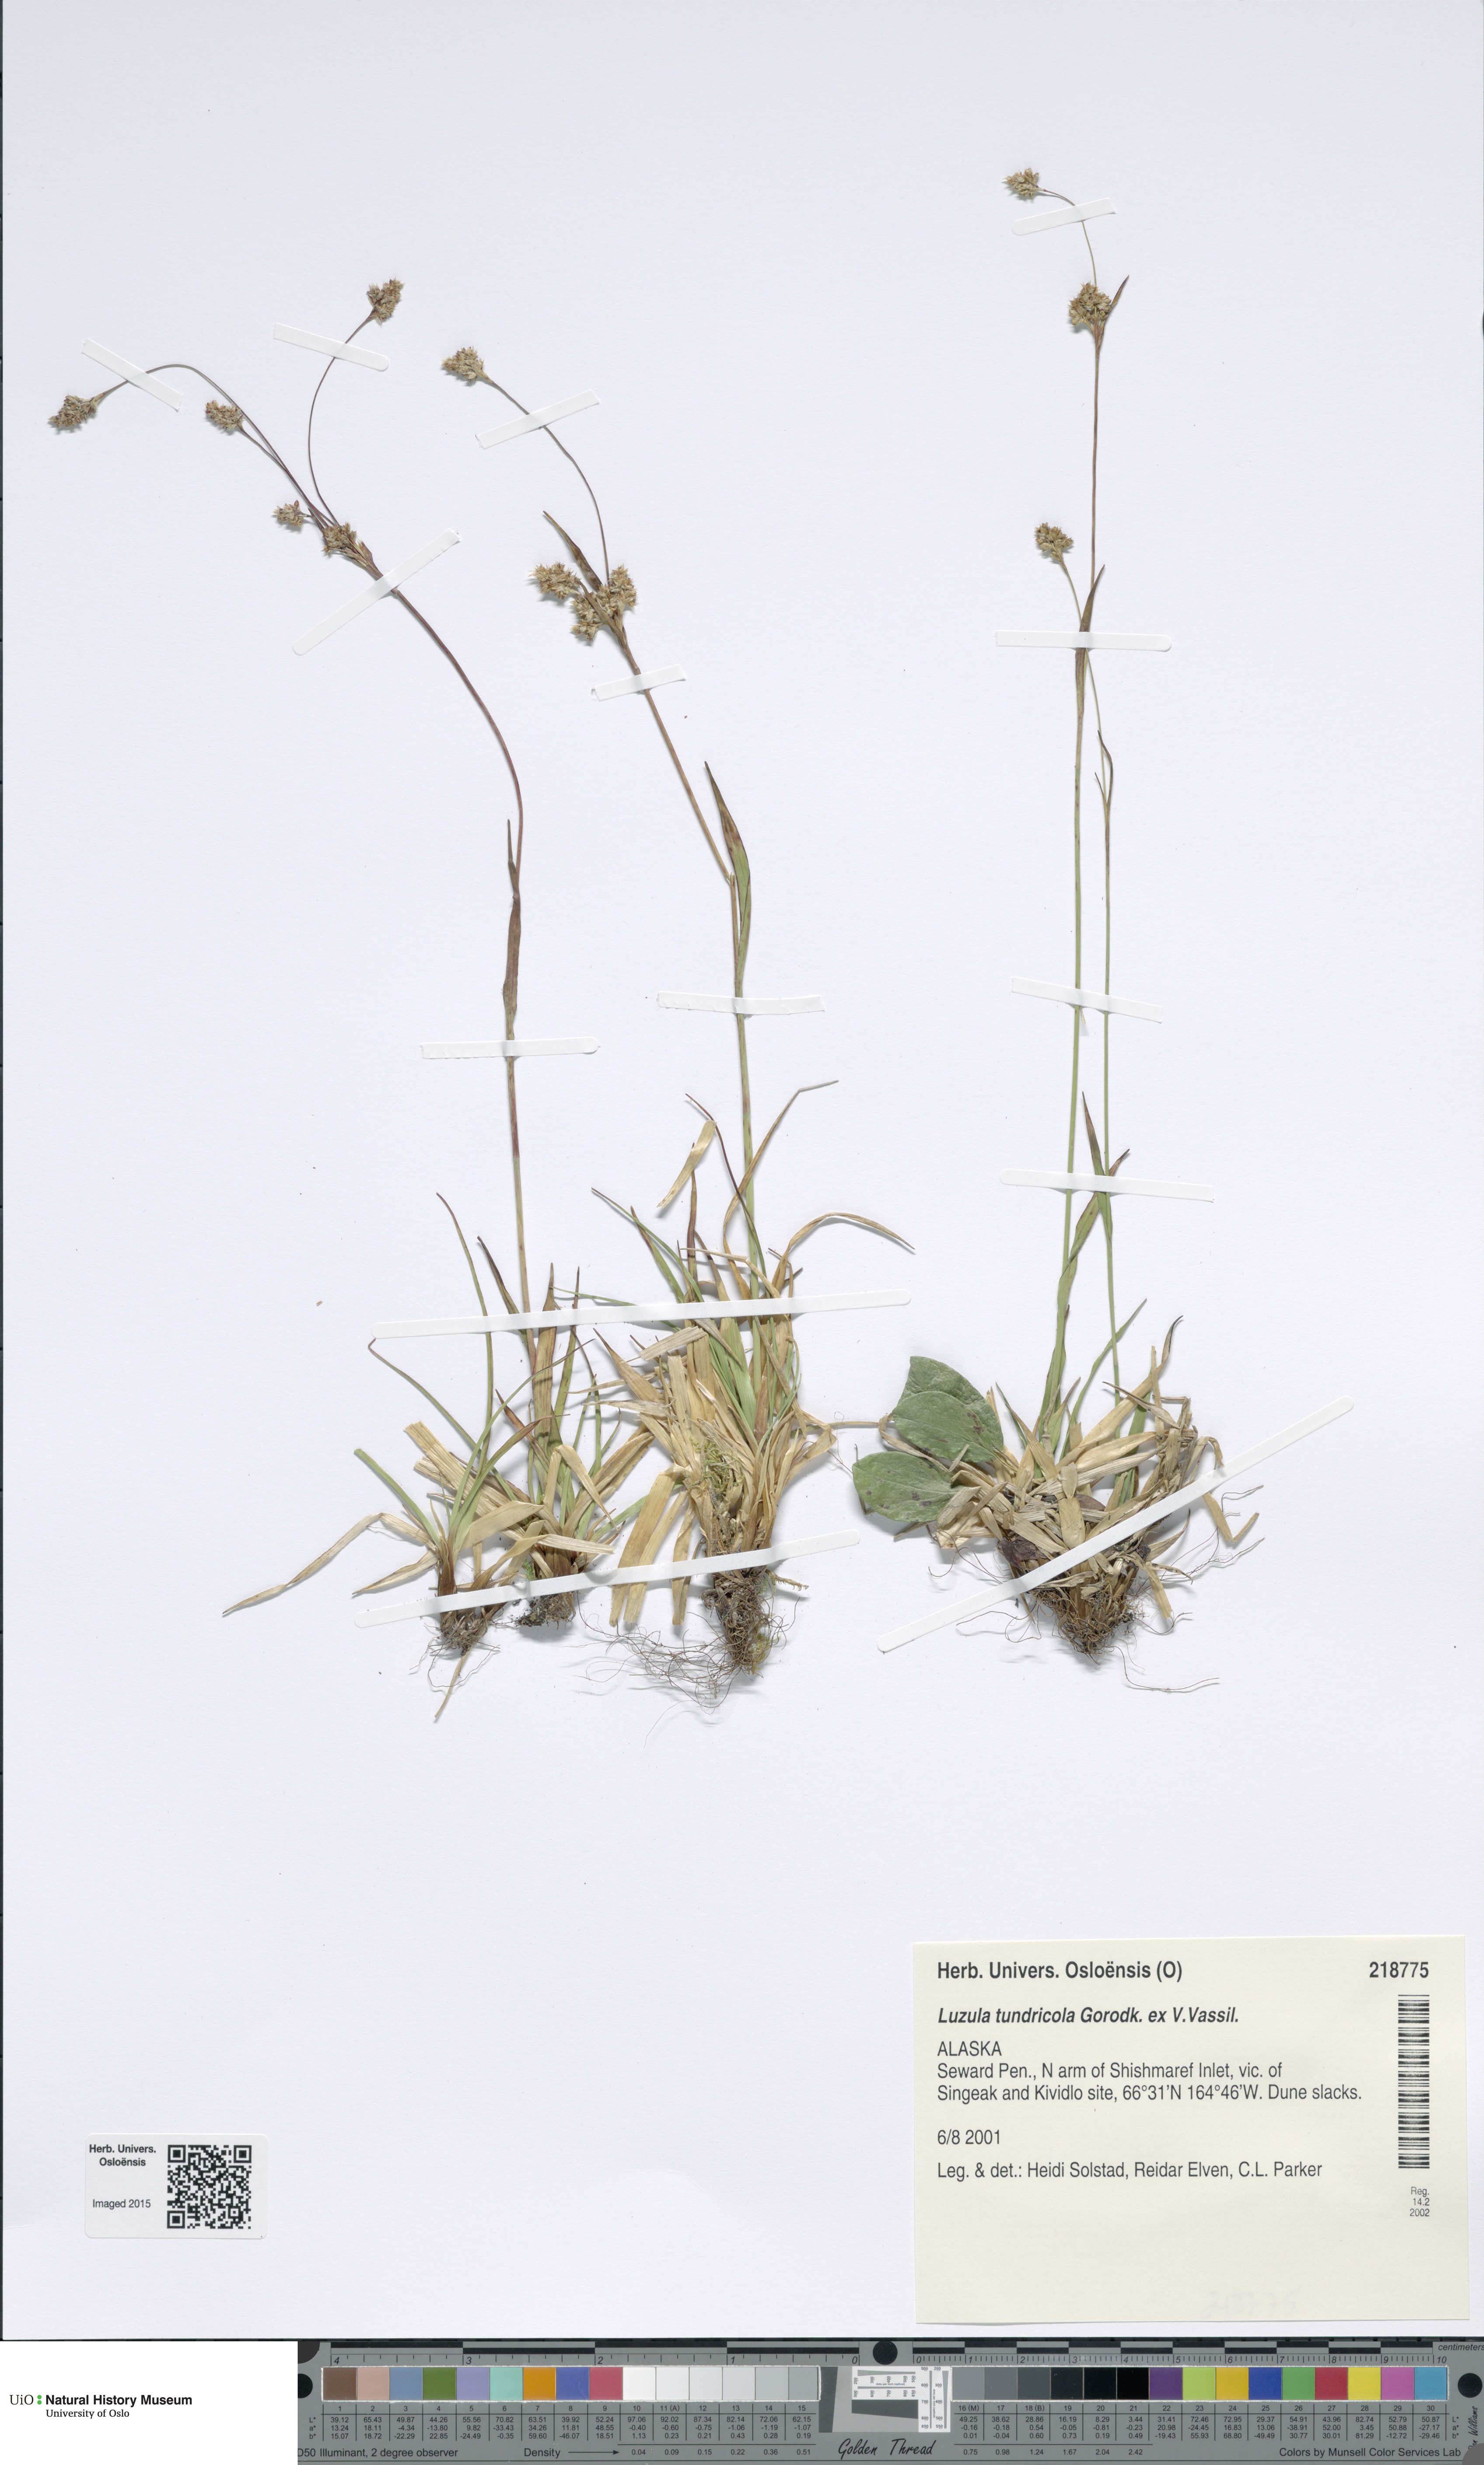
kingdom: Plantae
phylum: Tracheophyta
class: Liliopsida
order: Poales
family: Juncaceae
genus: Luzula
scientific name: Luzula kjellmaniana
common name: Kjellman's woodrush
